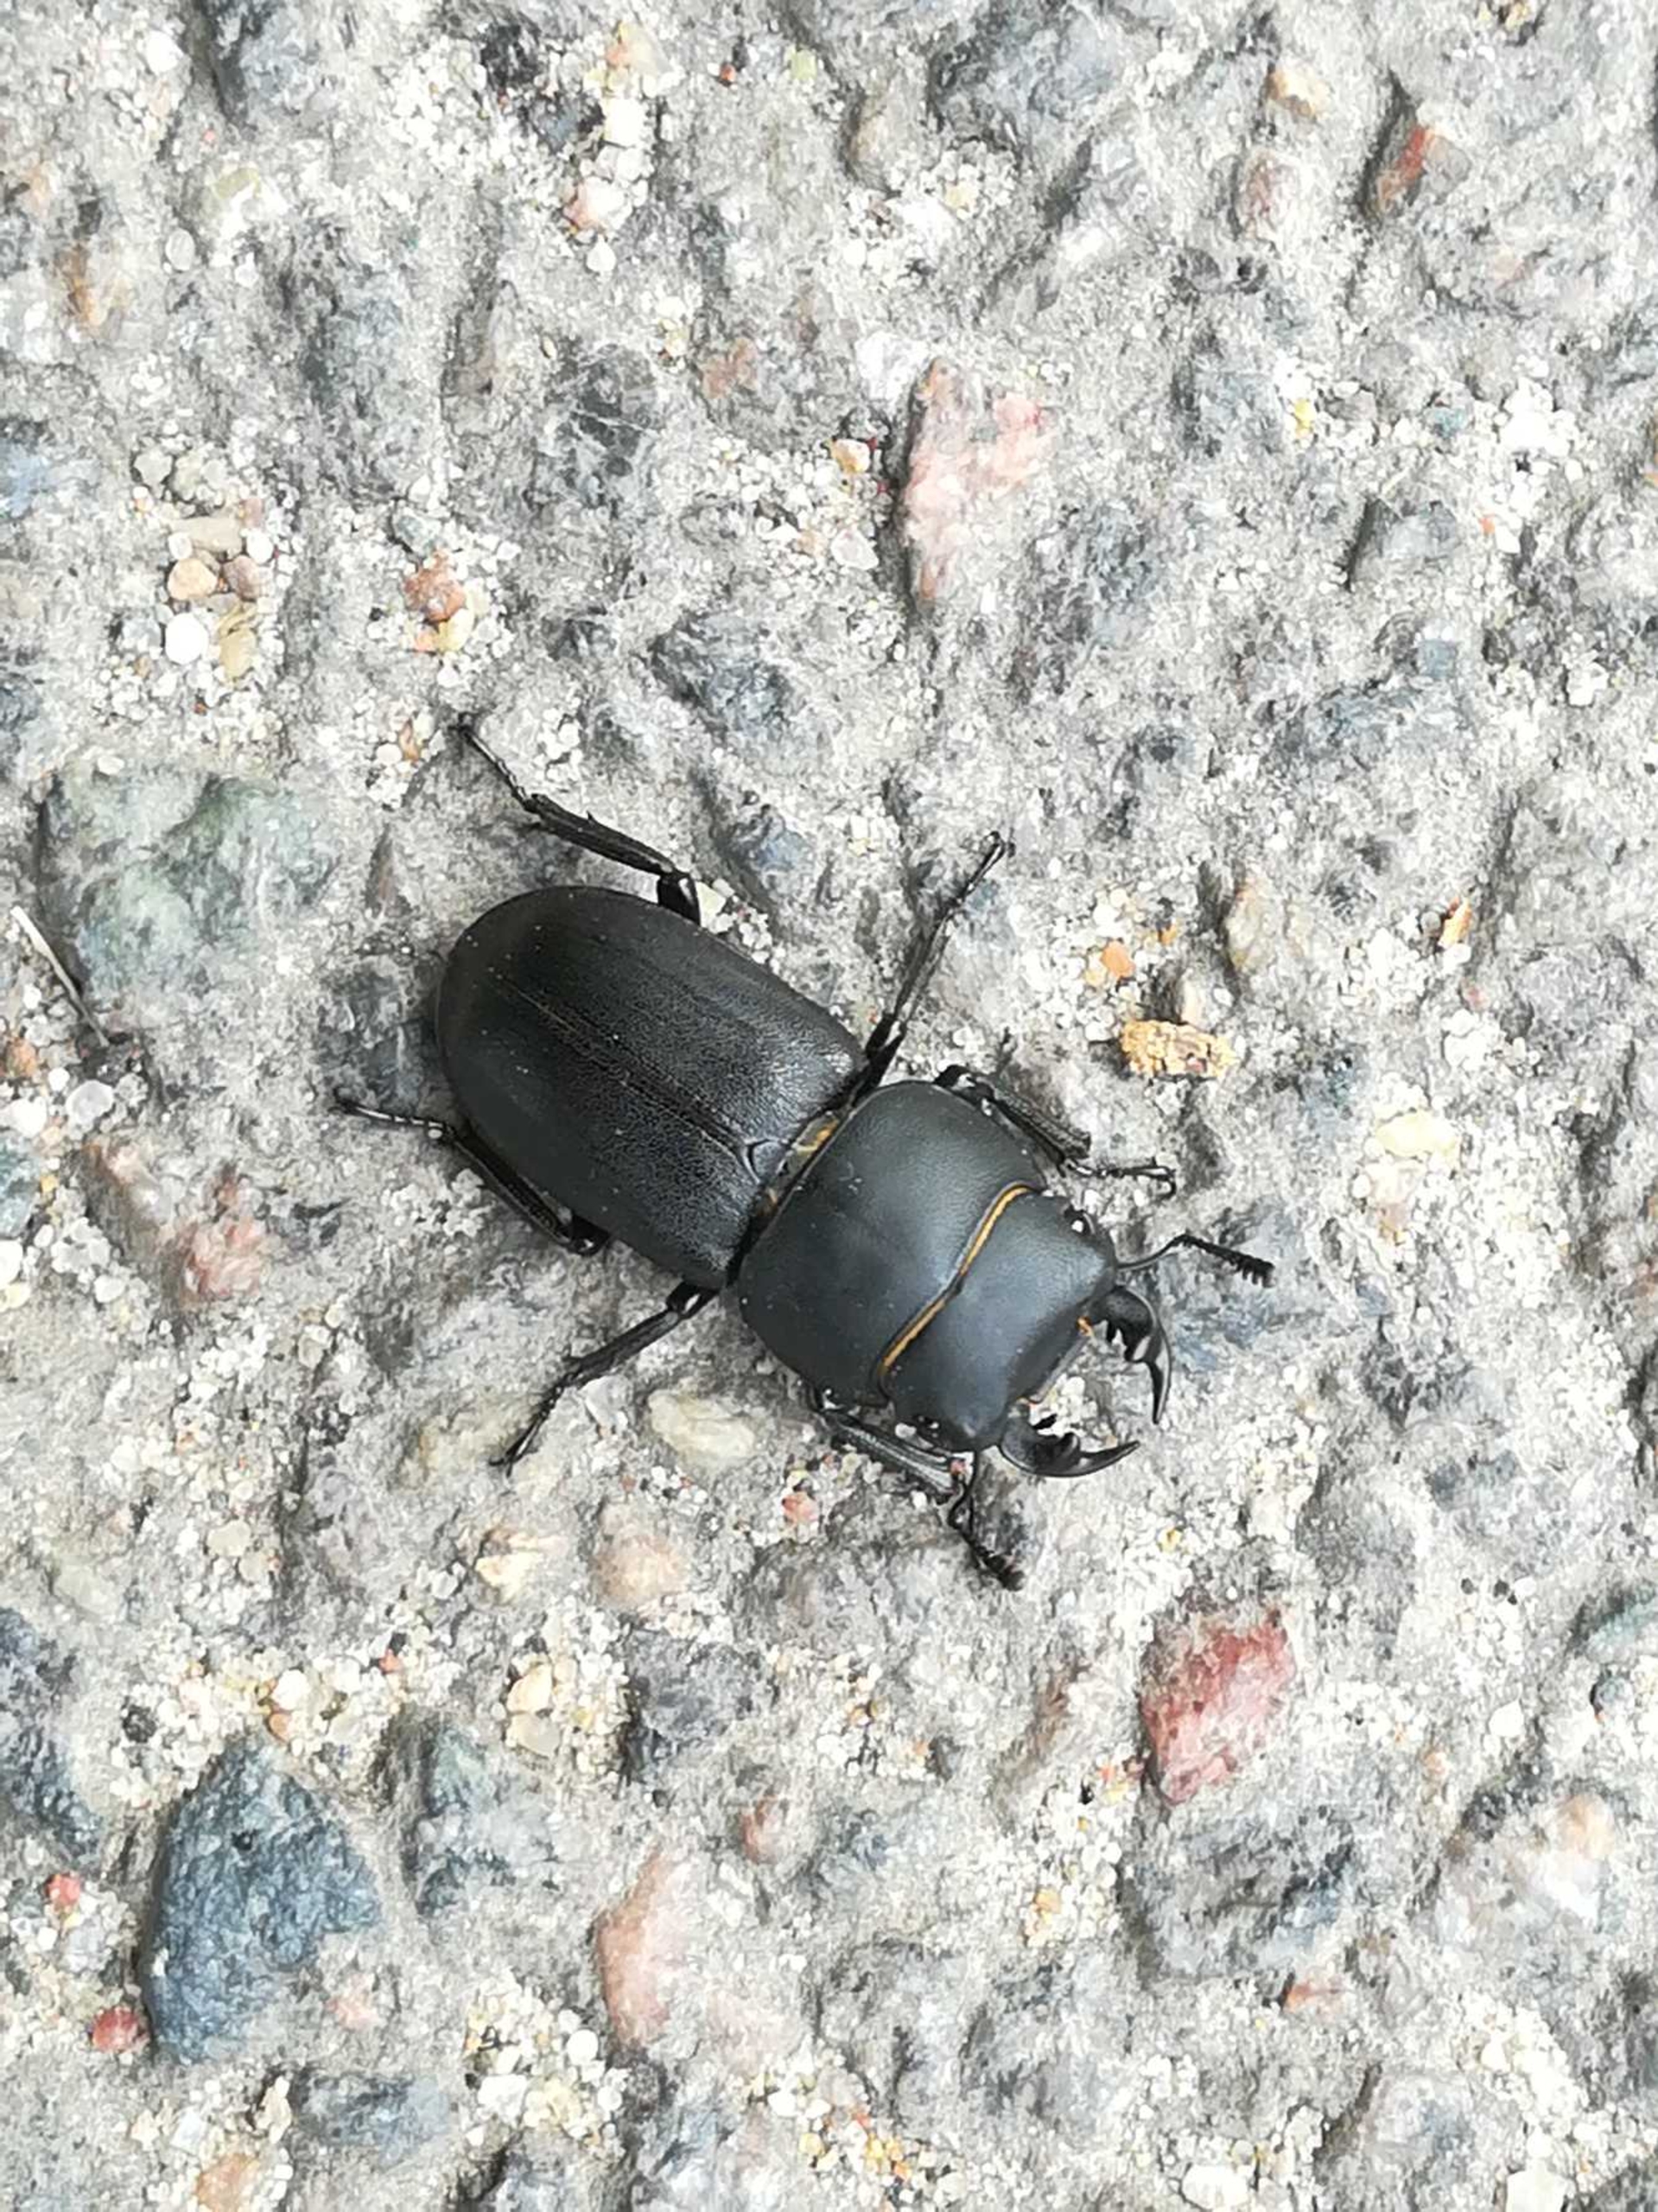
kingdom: Animalia
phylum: Arthropoda
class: Insecta
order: Coleoptera
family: Lucanidae
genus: Dorcus
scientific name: Dorcus parallelipipedus
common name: Bøghjort
